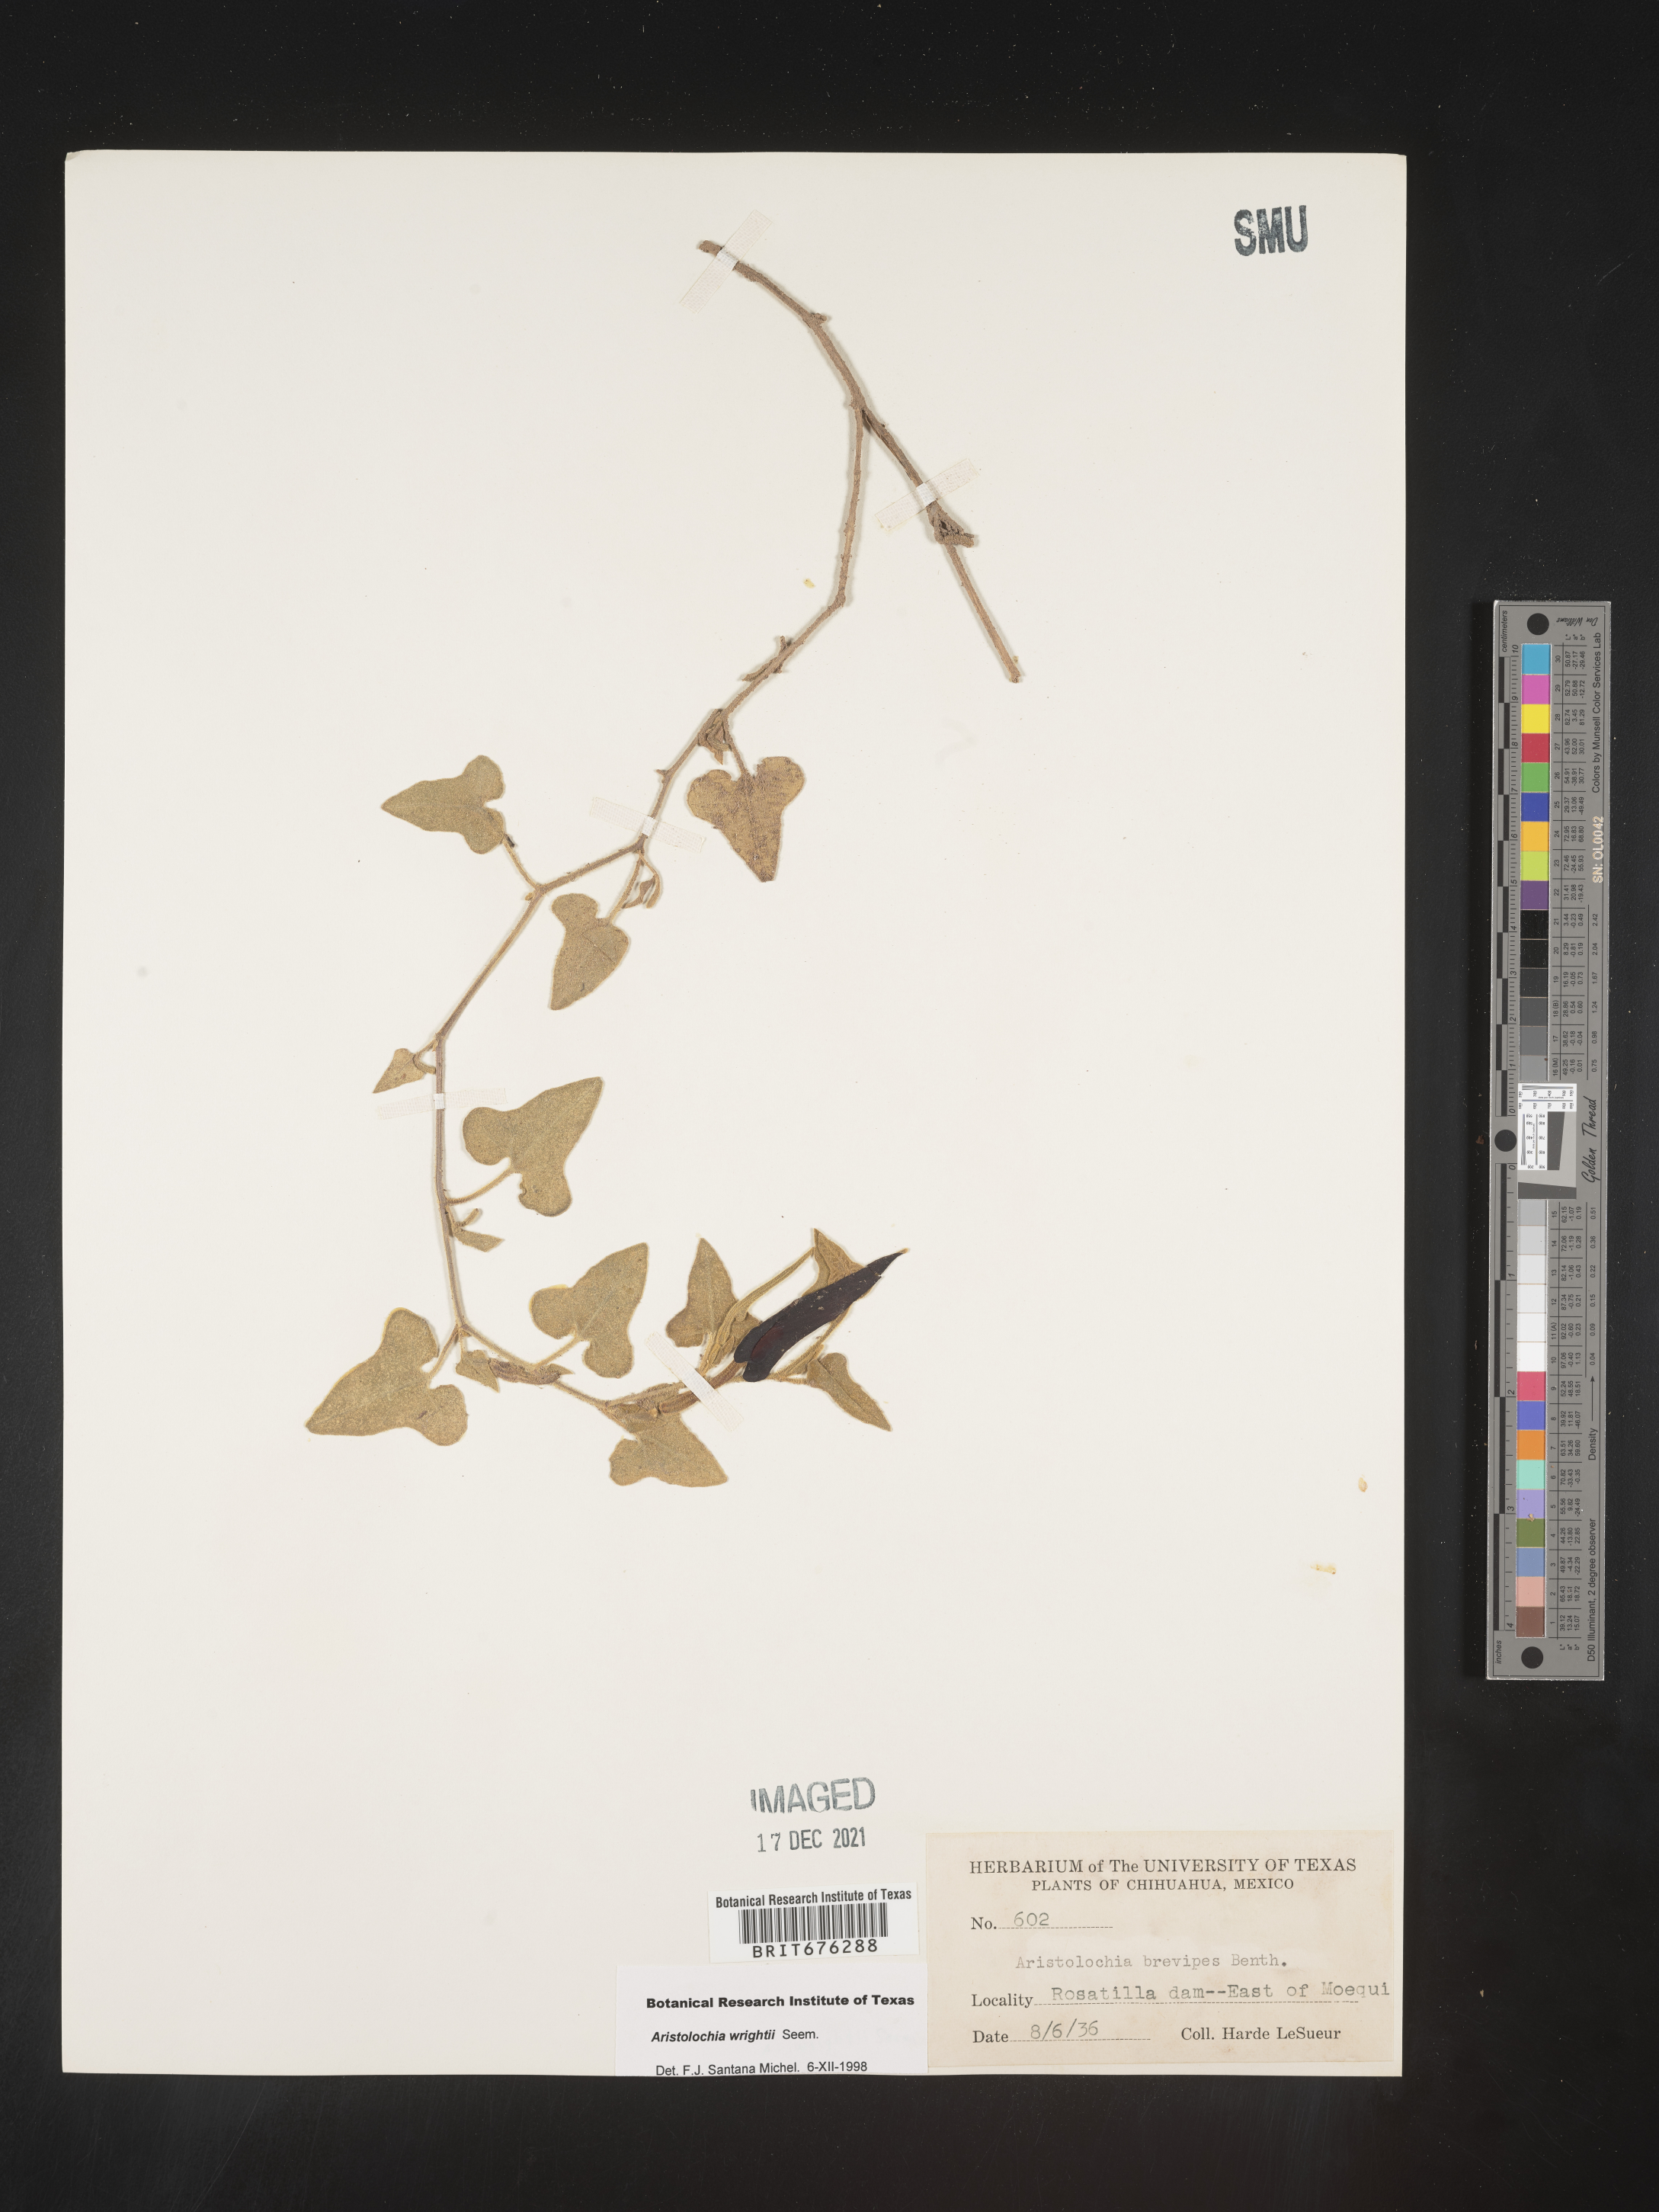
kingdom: Plantae
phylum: Tracheophyta
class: Magnoliopsida
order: Piperales
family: Aristolochiaceae
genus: Aristolochia
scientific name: Aristolochia
